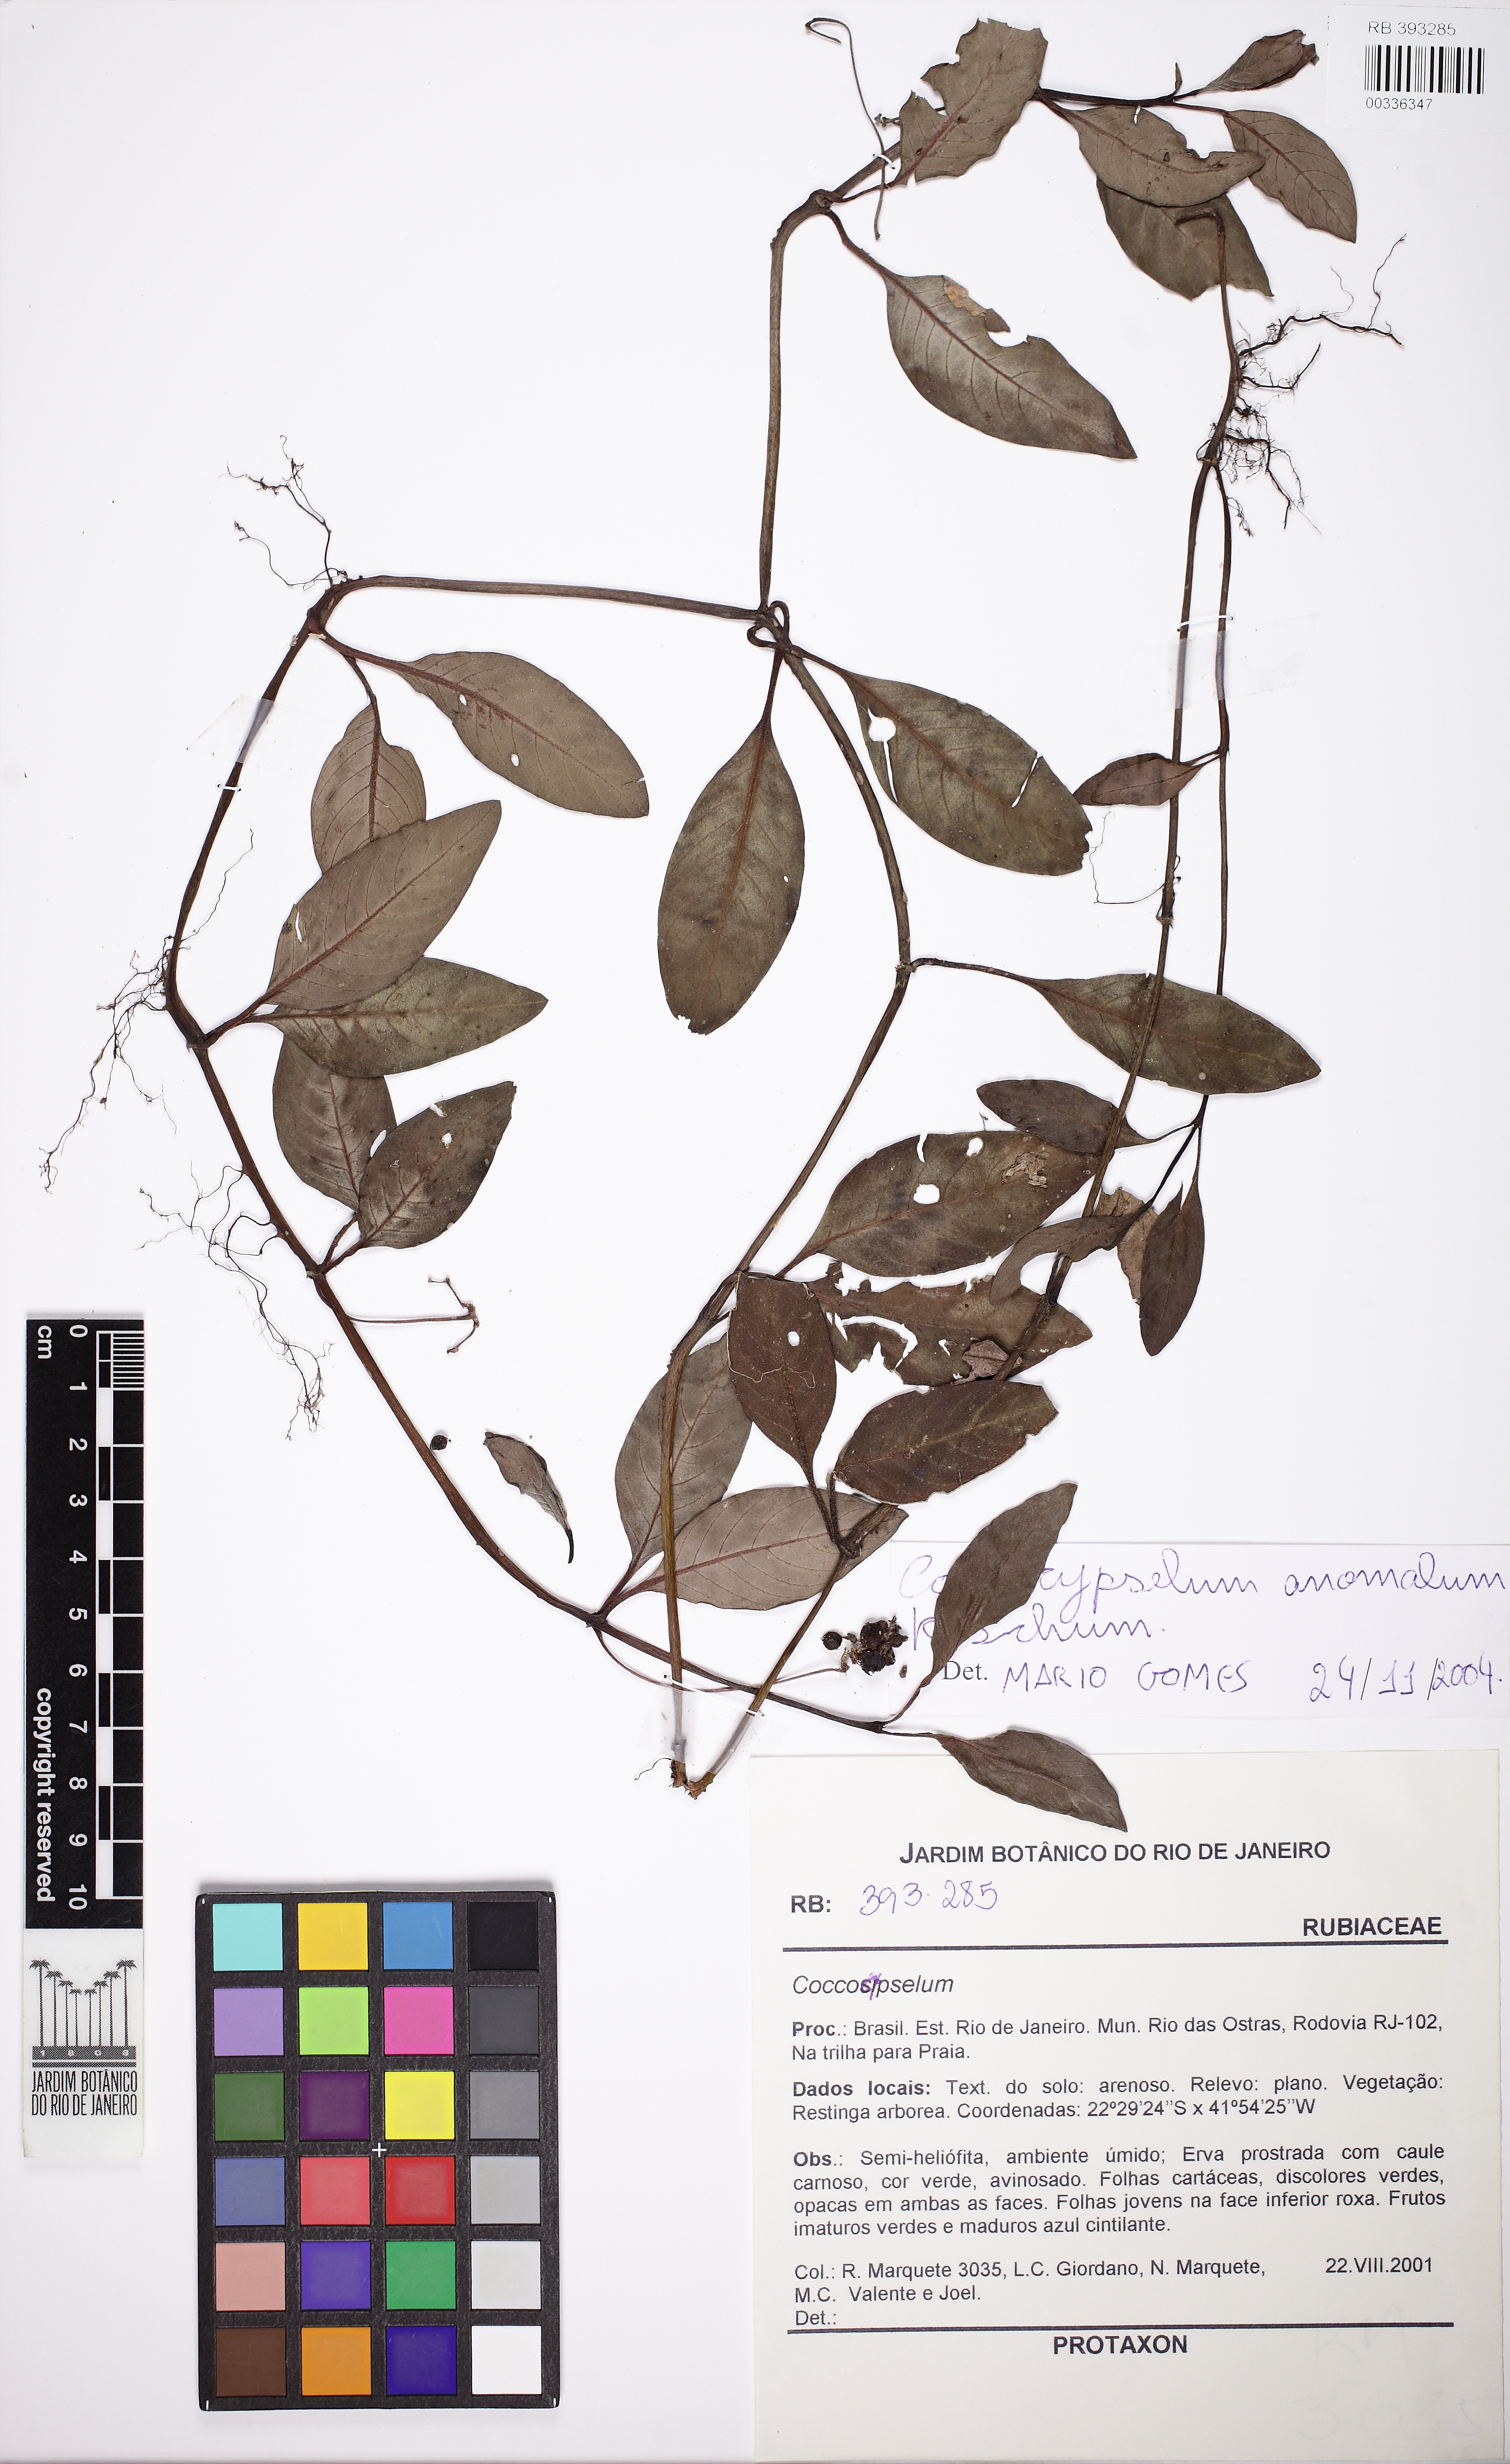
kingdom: Plantae
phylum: Tracheophyta
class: Magnoliopsida
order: Gentianales
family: Rubiaceae
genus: Coccocypselum
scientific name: Coccocypselum anomalum
